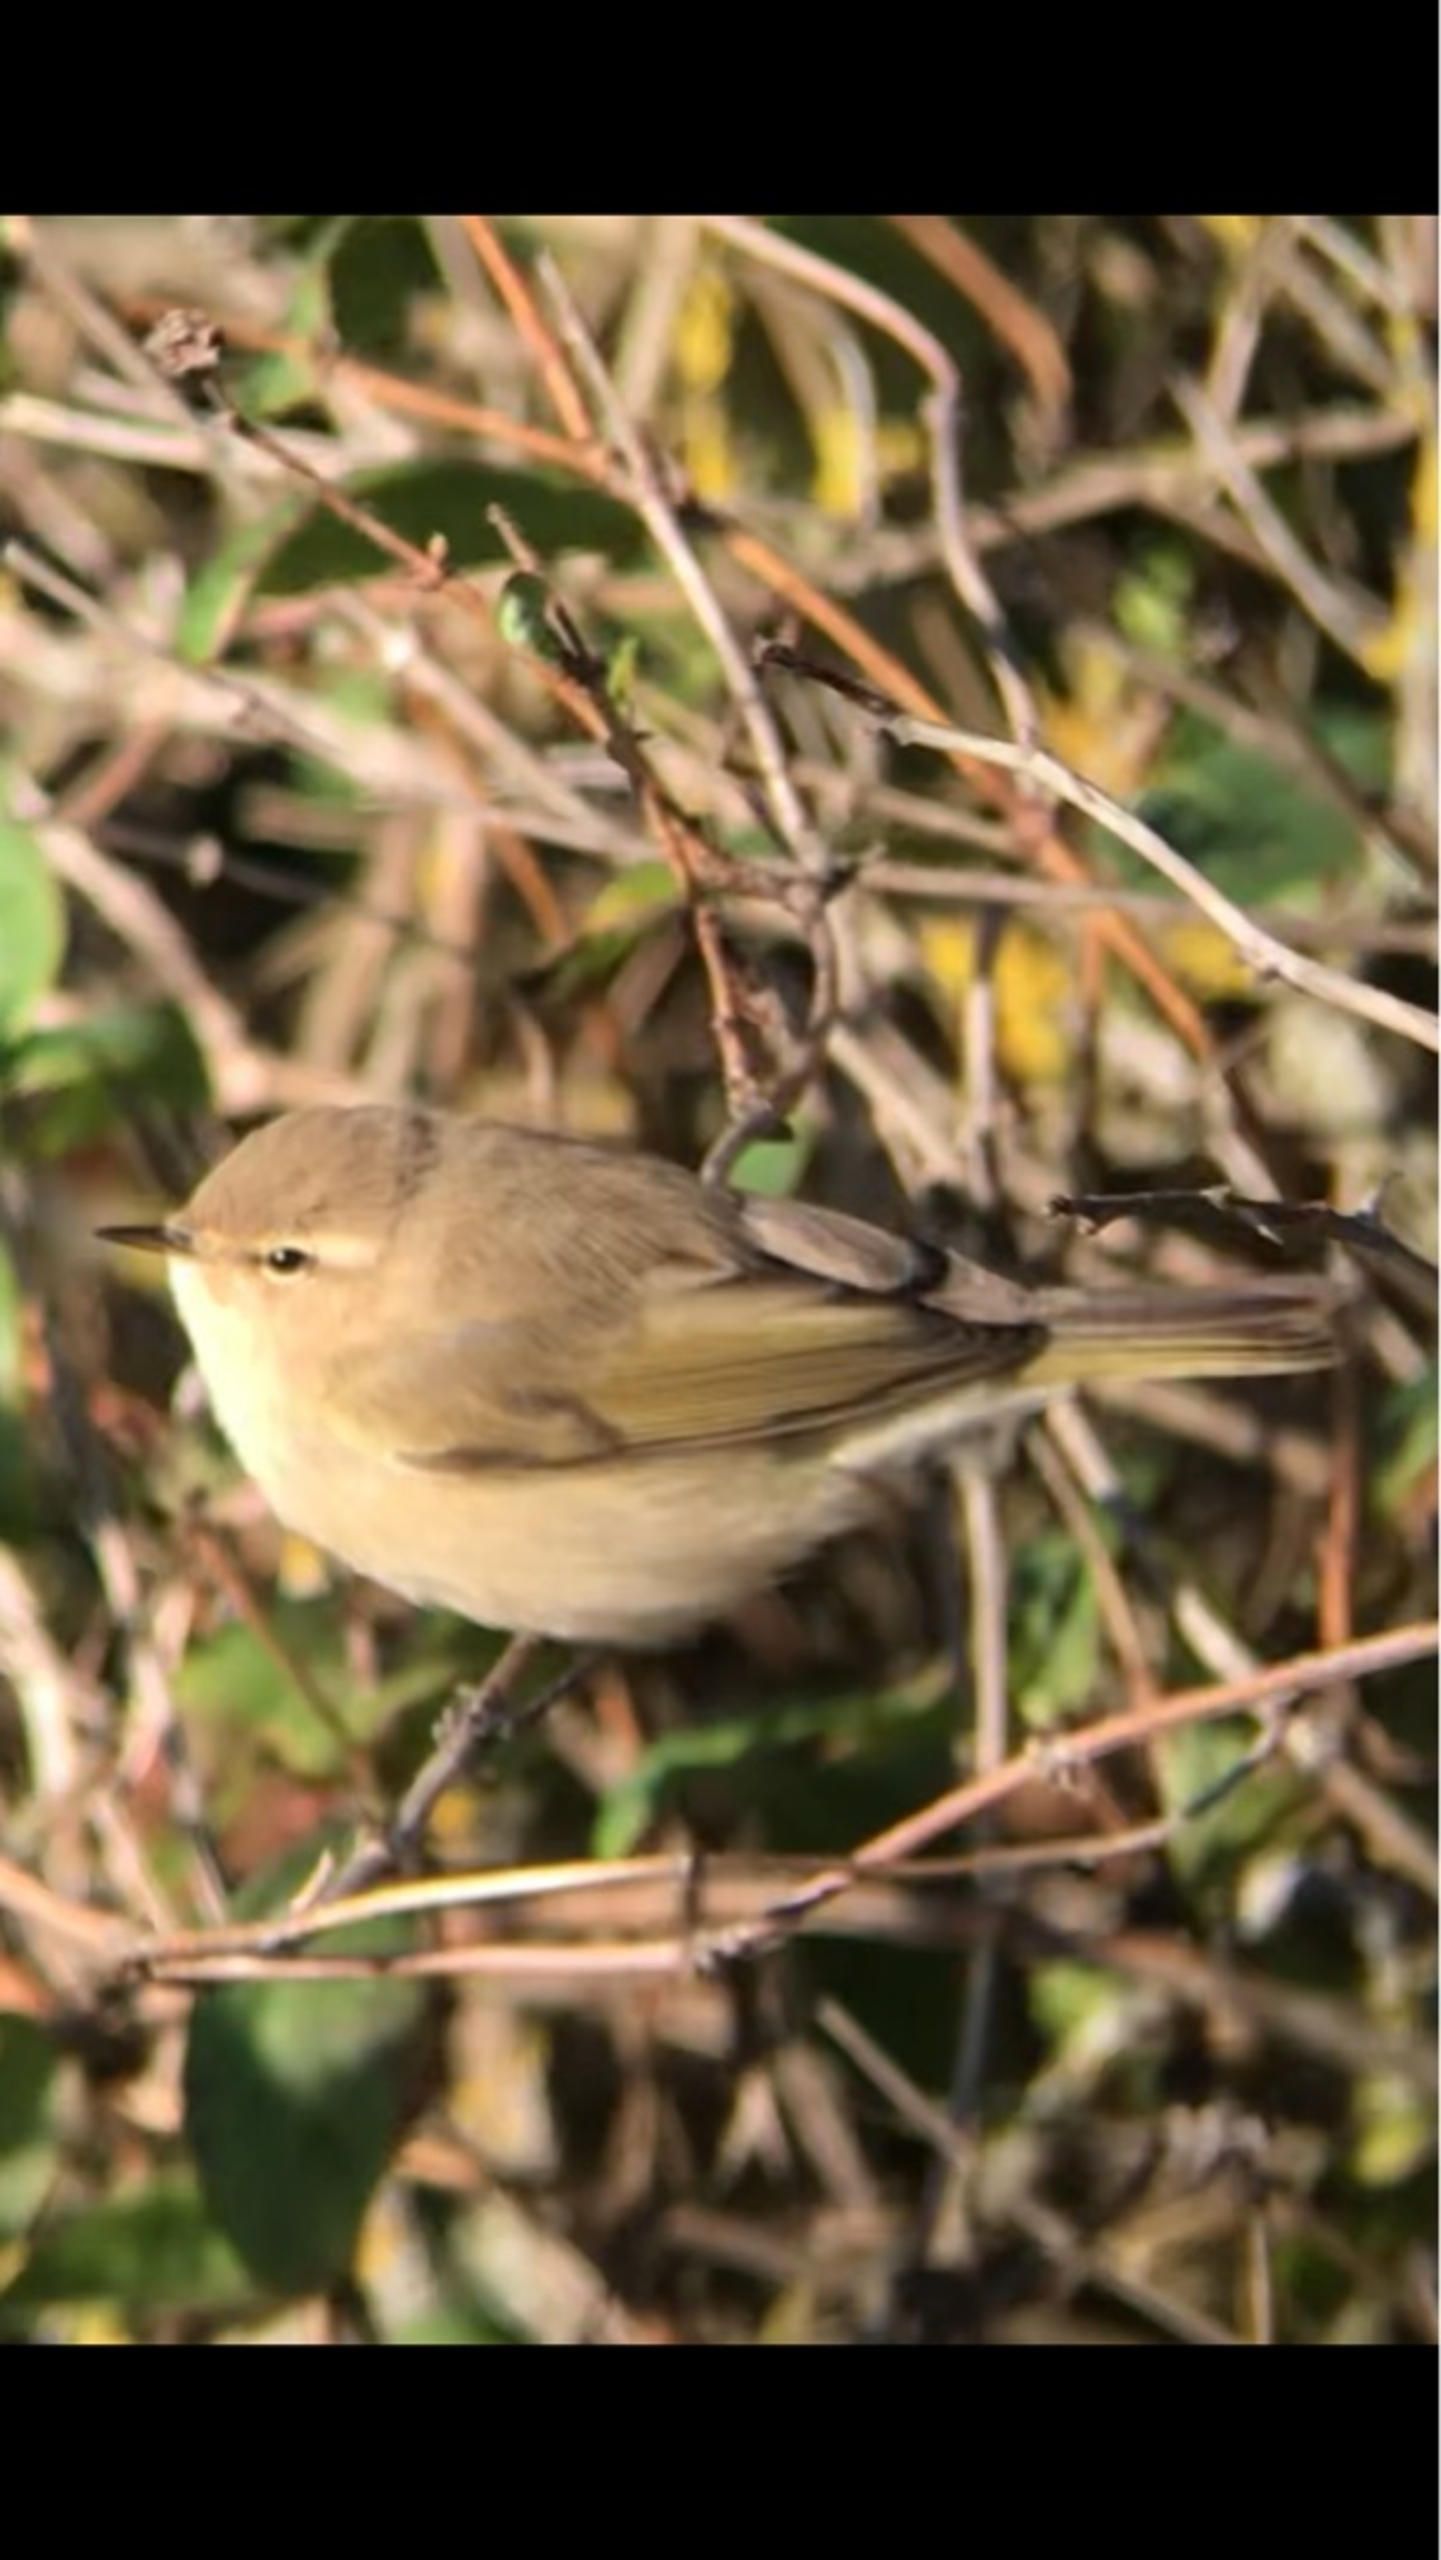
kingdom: Animalia
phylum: Chordata
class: Aves
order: Passeriformes
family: Phylloscopidae
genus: Phylloscopus
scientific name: Phylloscopus collybita
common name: Sibirisk gransanger
